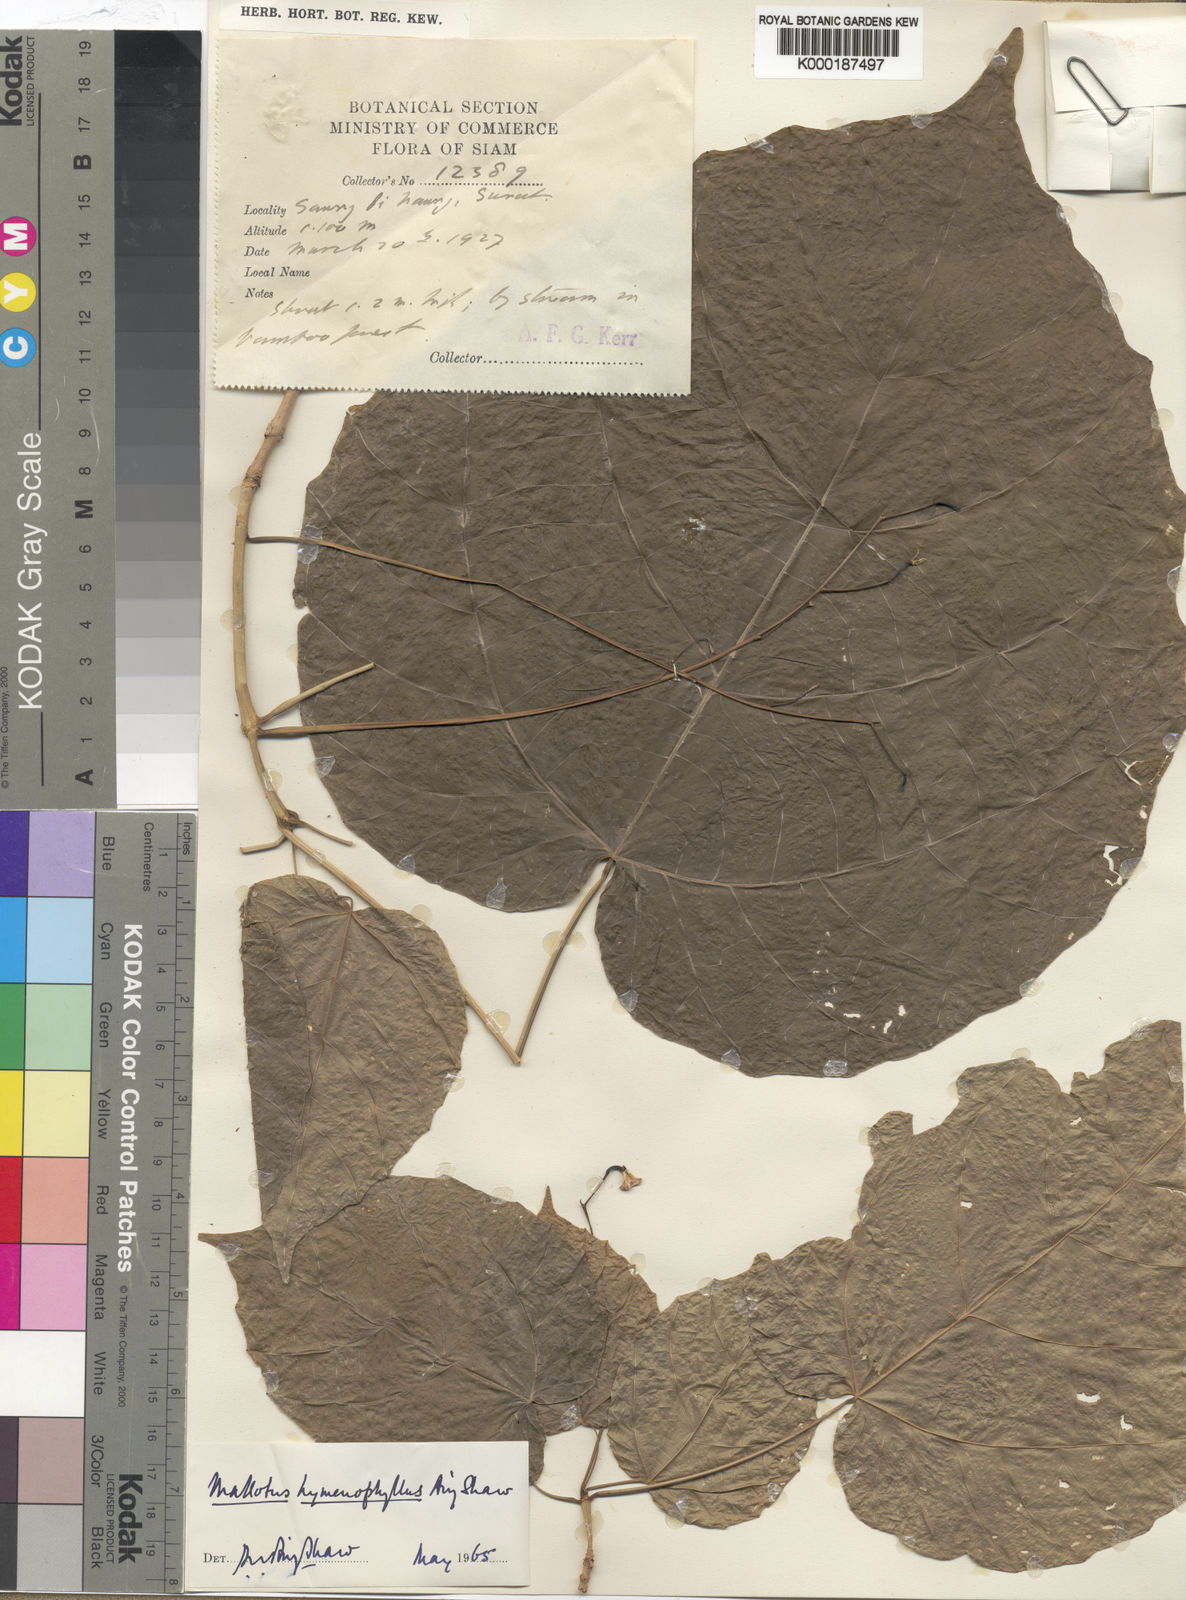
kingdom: Plantae
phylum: Tracheophyta
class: Magnoliopsida
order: Malpighiales
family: Euphorbiaceae
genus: Mallotus
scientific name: Mallotus hymenophyllus
